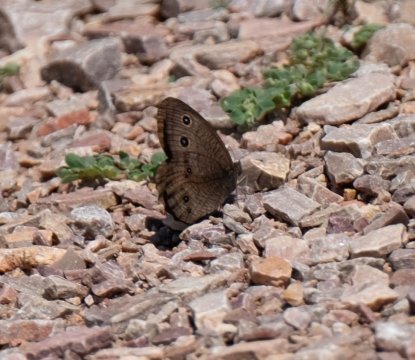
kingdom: Animalia
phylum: Arthropoda
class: Insecta
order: Lepidoptera
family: Nymphalidae
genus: Cercyonis
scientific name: Cercyonis pegala
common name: Common Wood-Nymph
